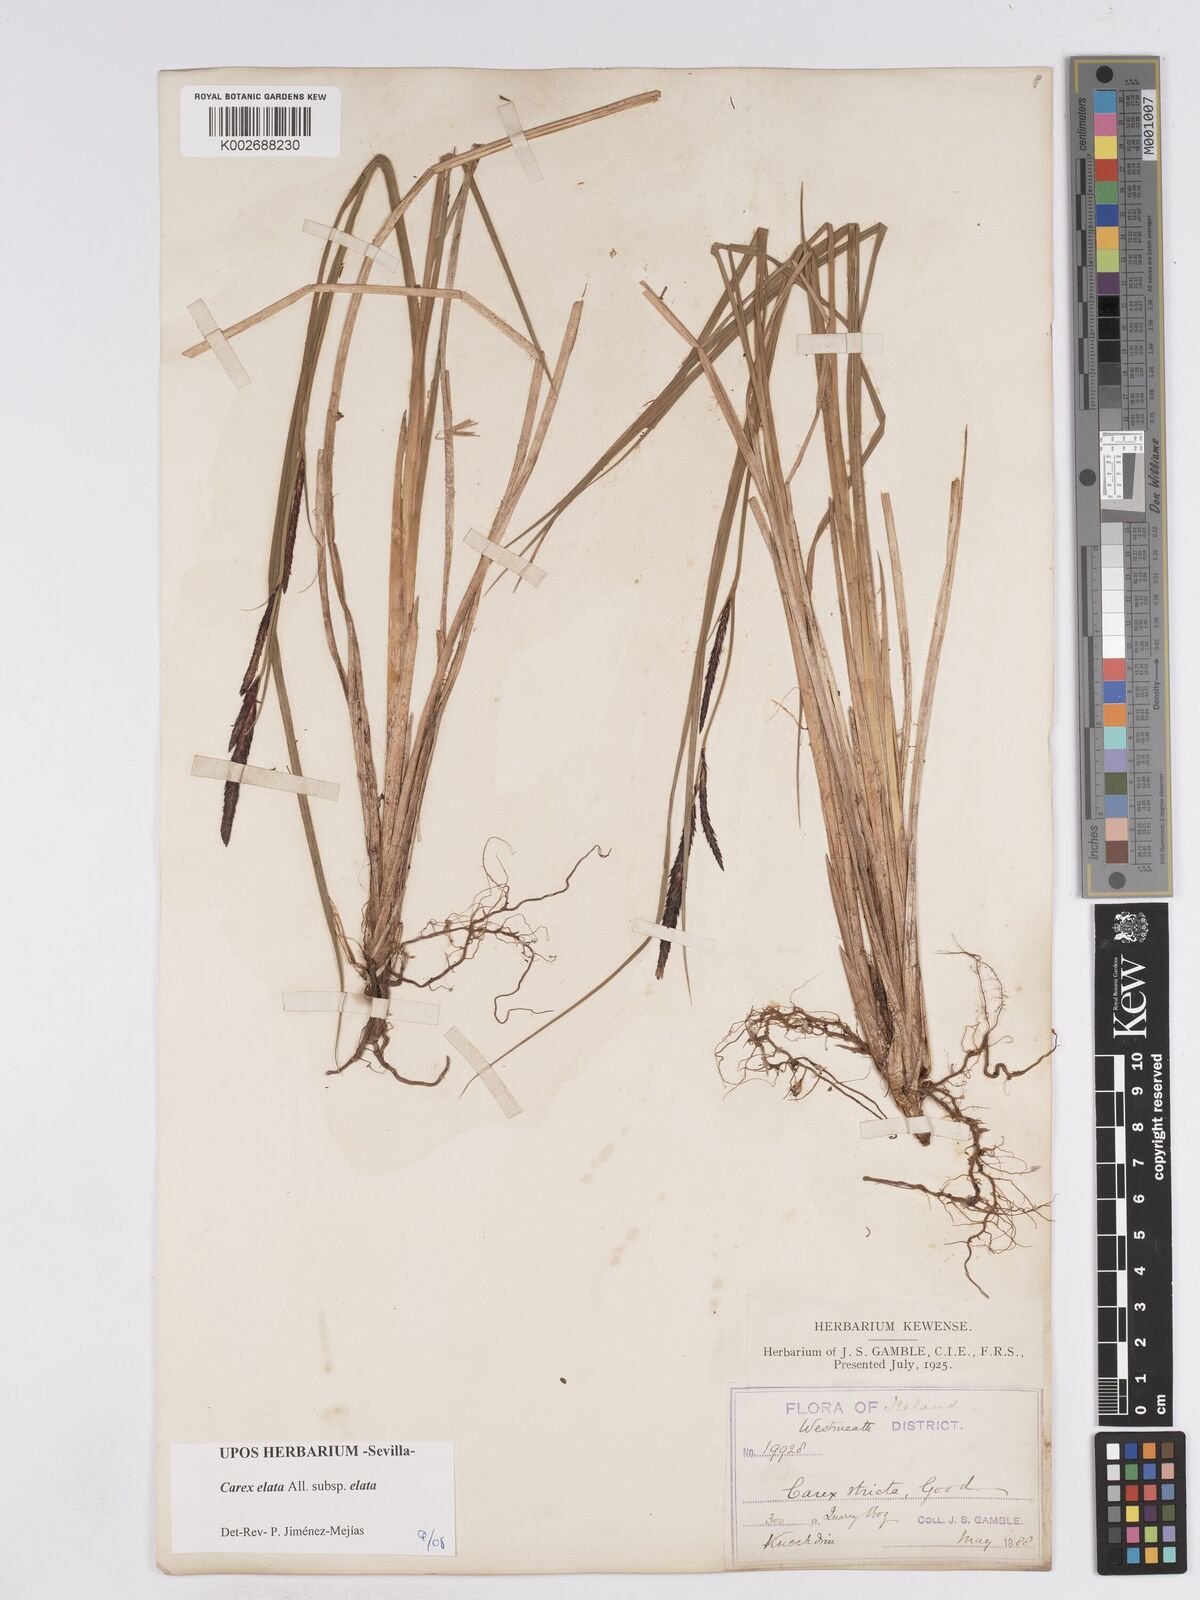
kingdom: Plantae
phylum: Tracheophyta
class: Liliopsida
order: Poales
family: Cyperaceae
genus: Carex
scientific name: Carex elata
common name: Tufted sedge
